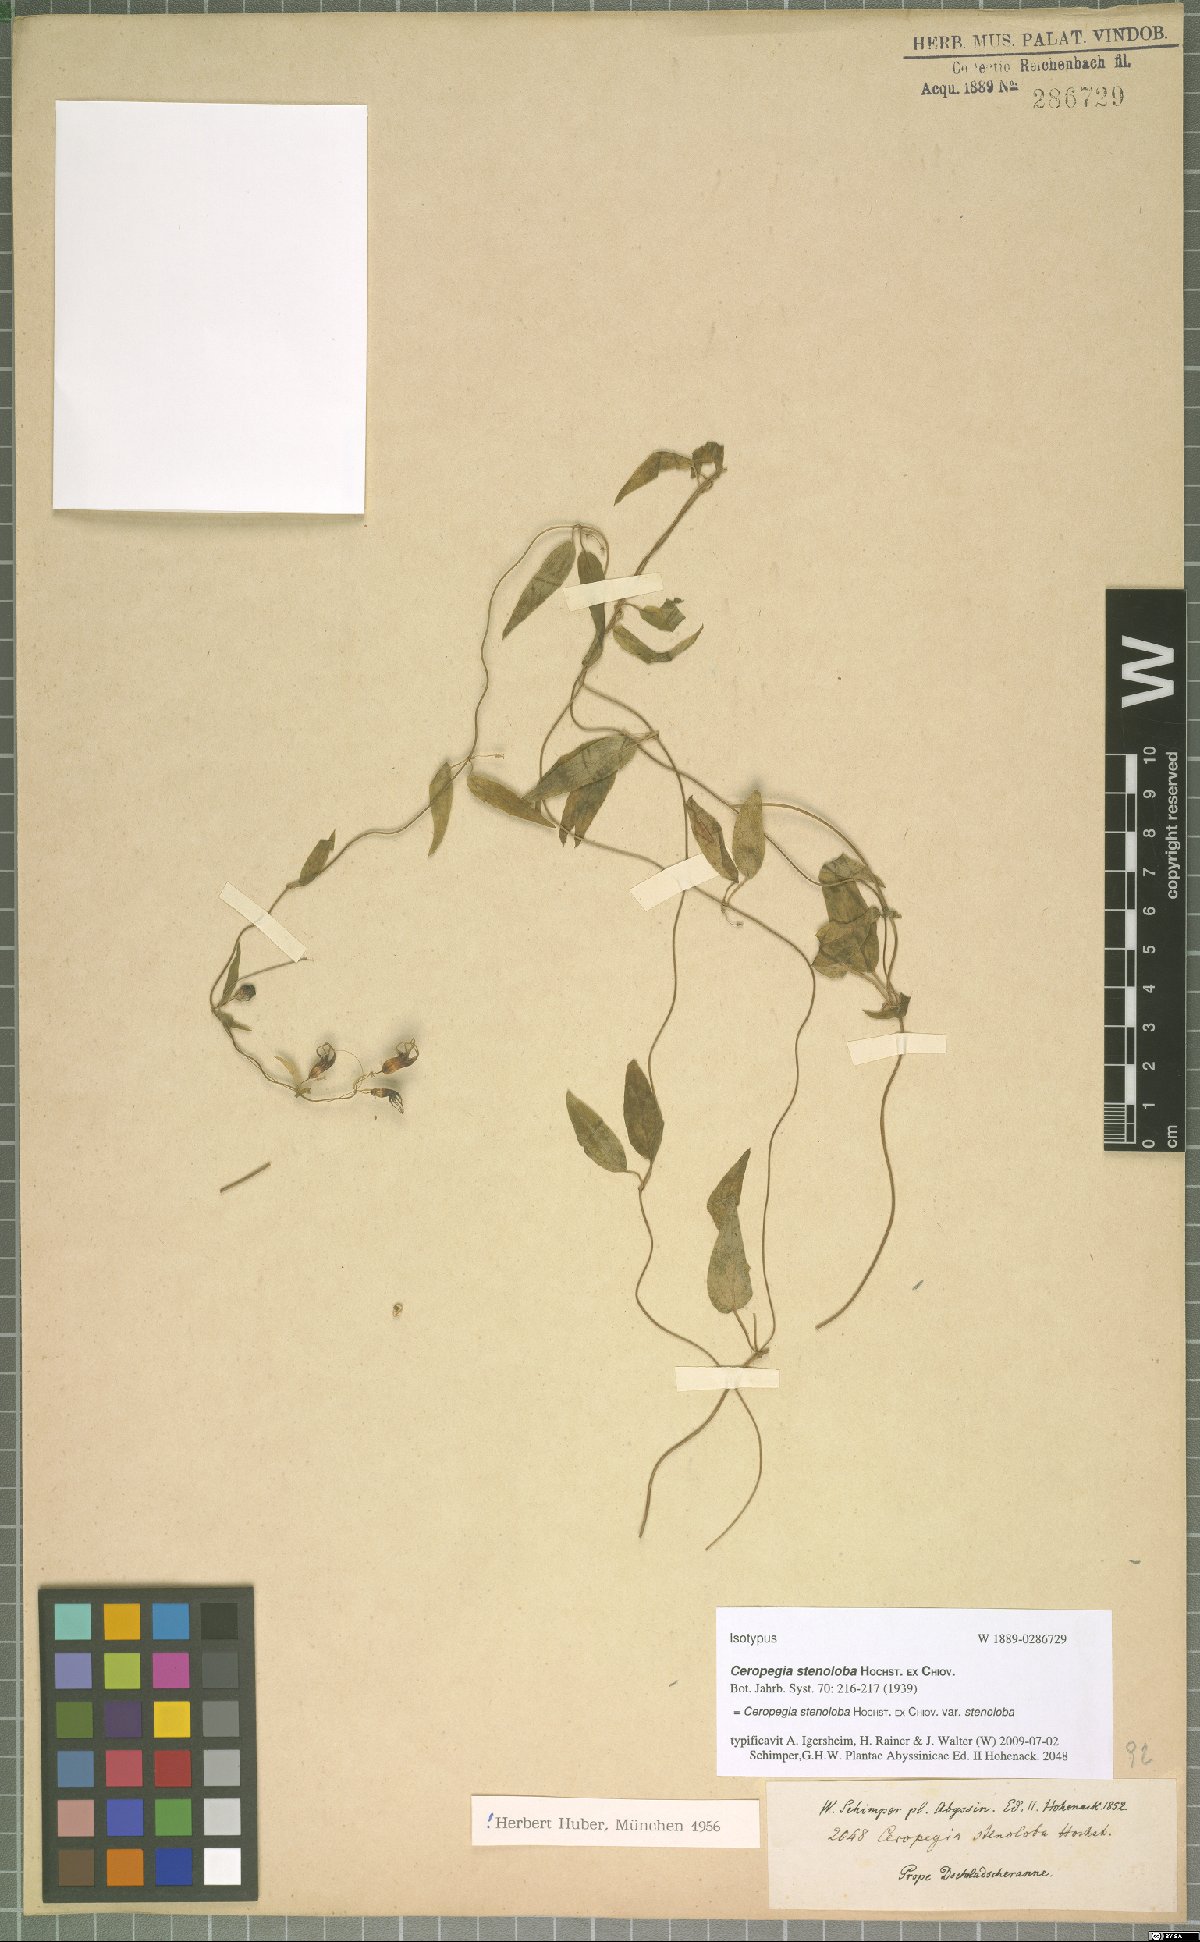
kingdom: Plantae
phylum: Tracheophyta
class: Magnoliopsida
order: Gentianales
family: Apocynaceae
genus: Ceropegia
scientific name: Ceropegia stenoloba
